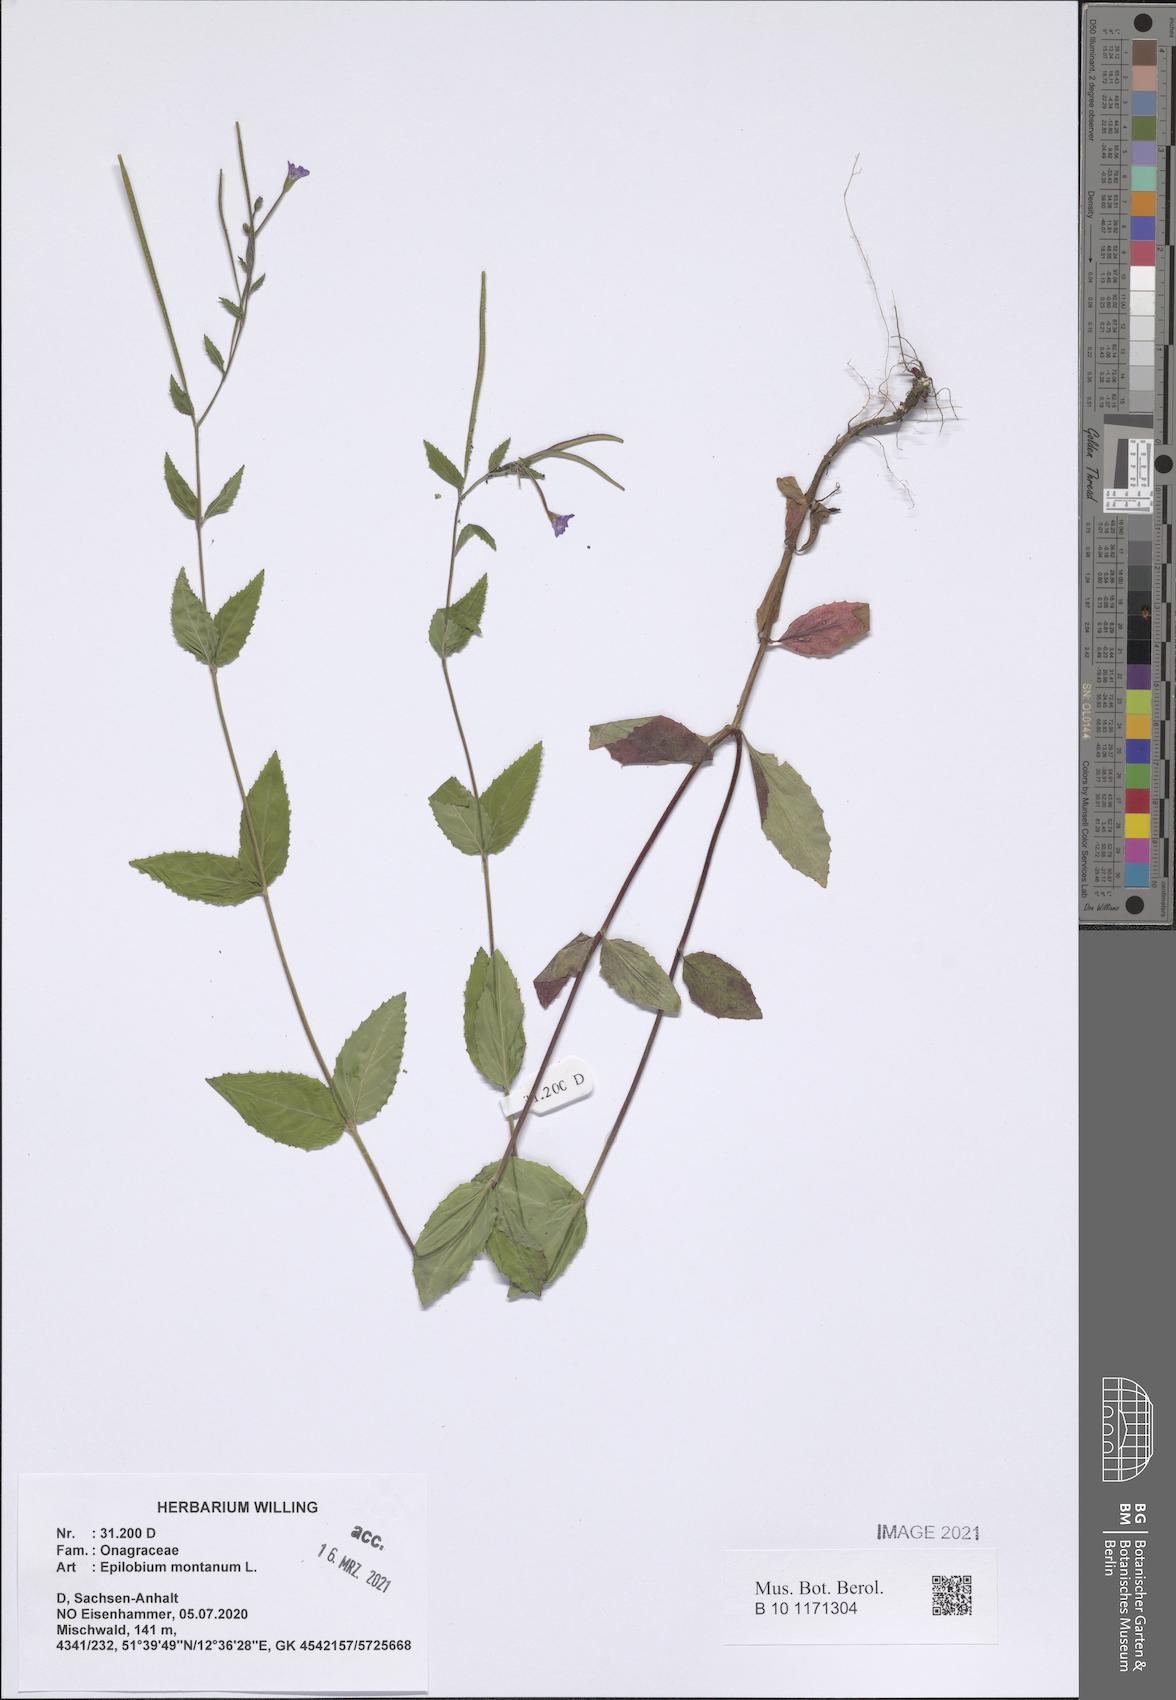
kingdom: Plantae
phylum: Tracheophyta
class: Magnoliopsida
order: Myrtales
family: Onagraceae
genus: Epilobium
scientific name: Epilobium montanum
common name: Broad-leaved willowherb
